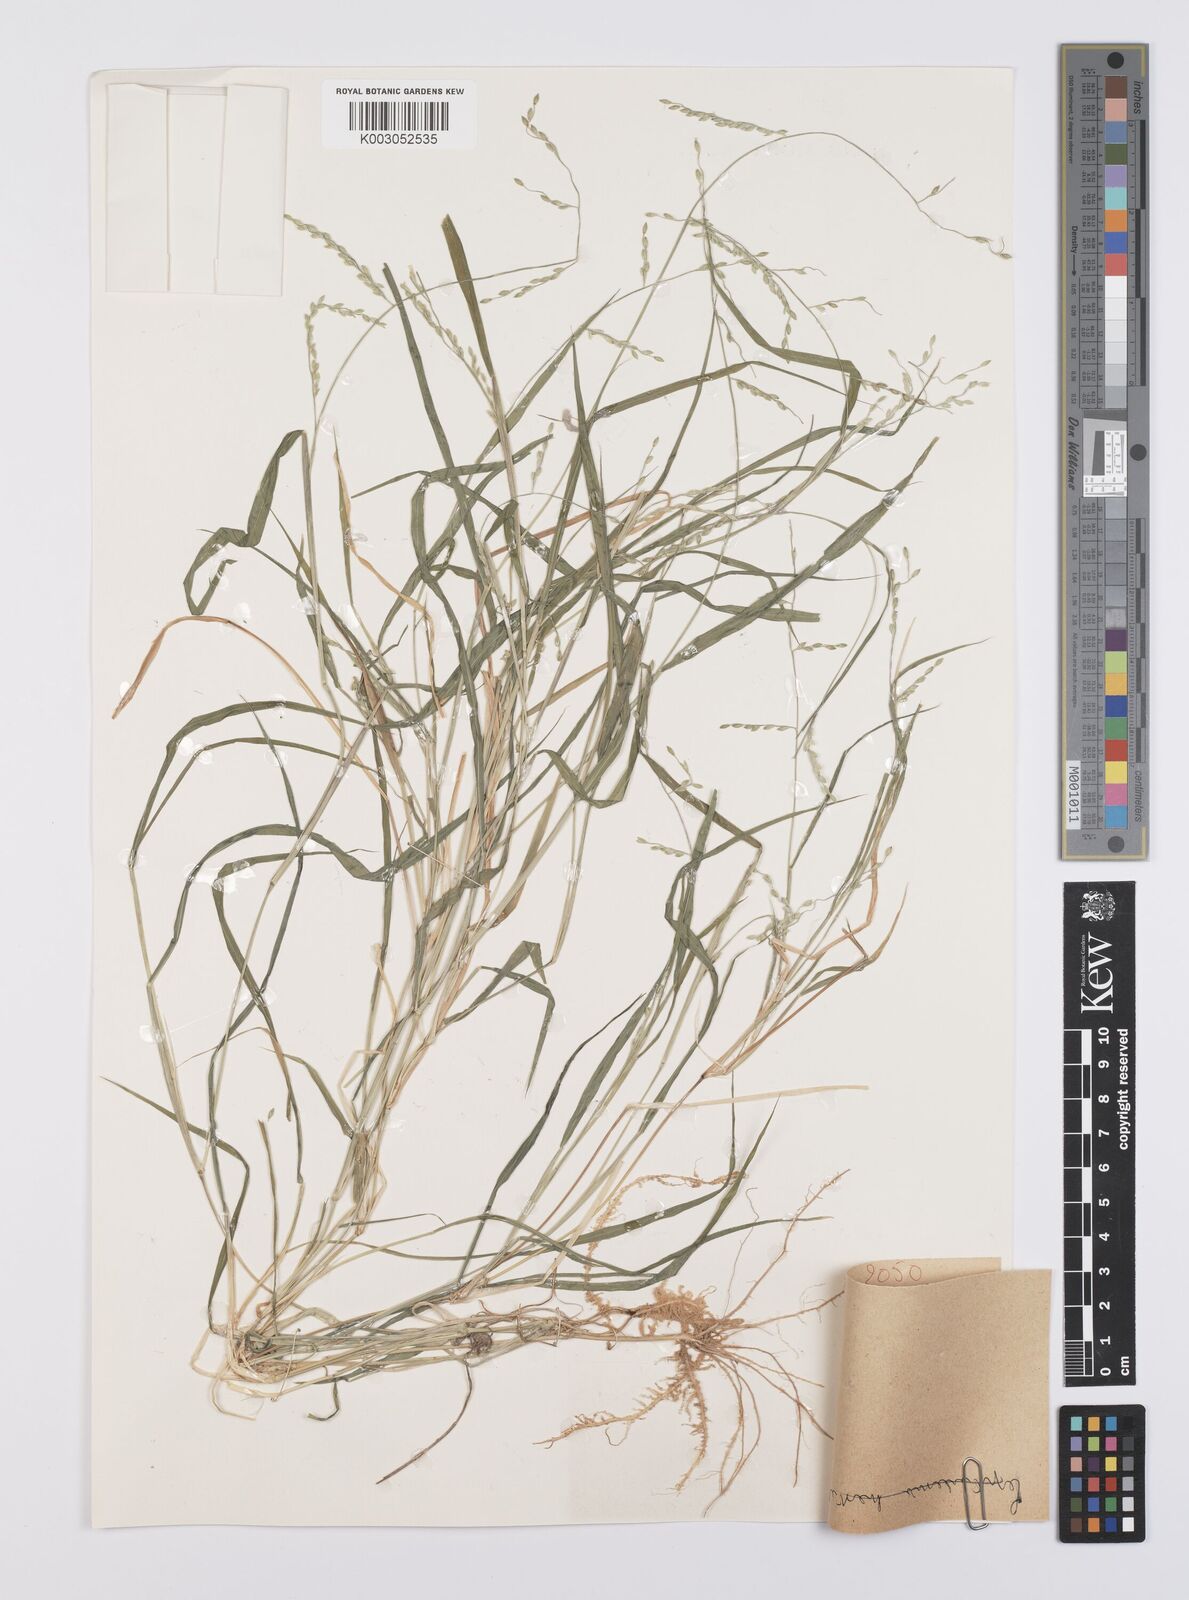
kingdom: Plantae
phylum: Tracheophyta
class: Liliopsida
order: Poales
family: Poaceae
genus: Urochloa
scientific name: Urochloa leersioides
